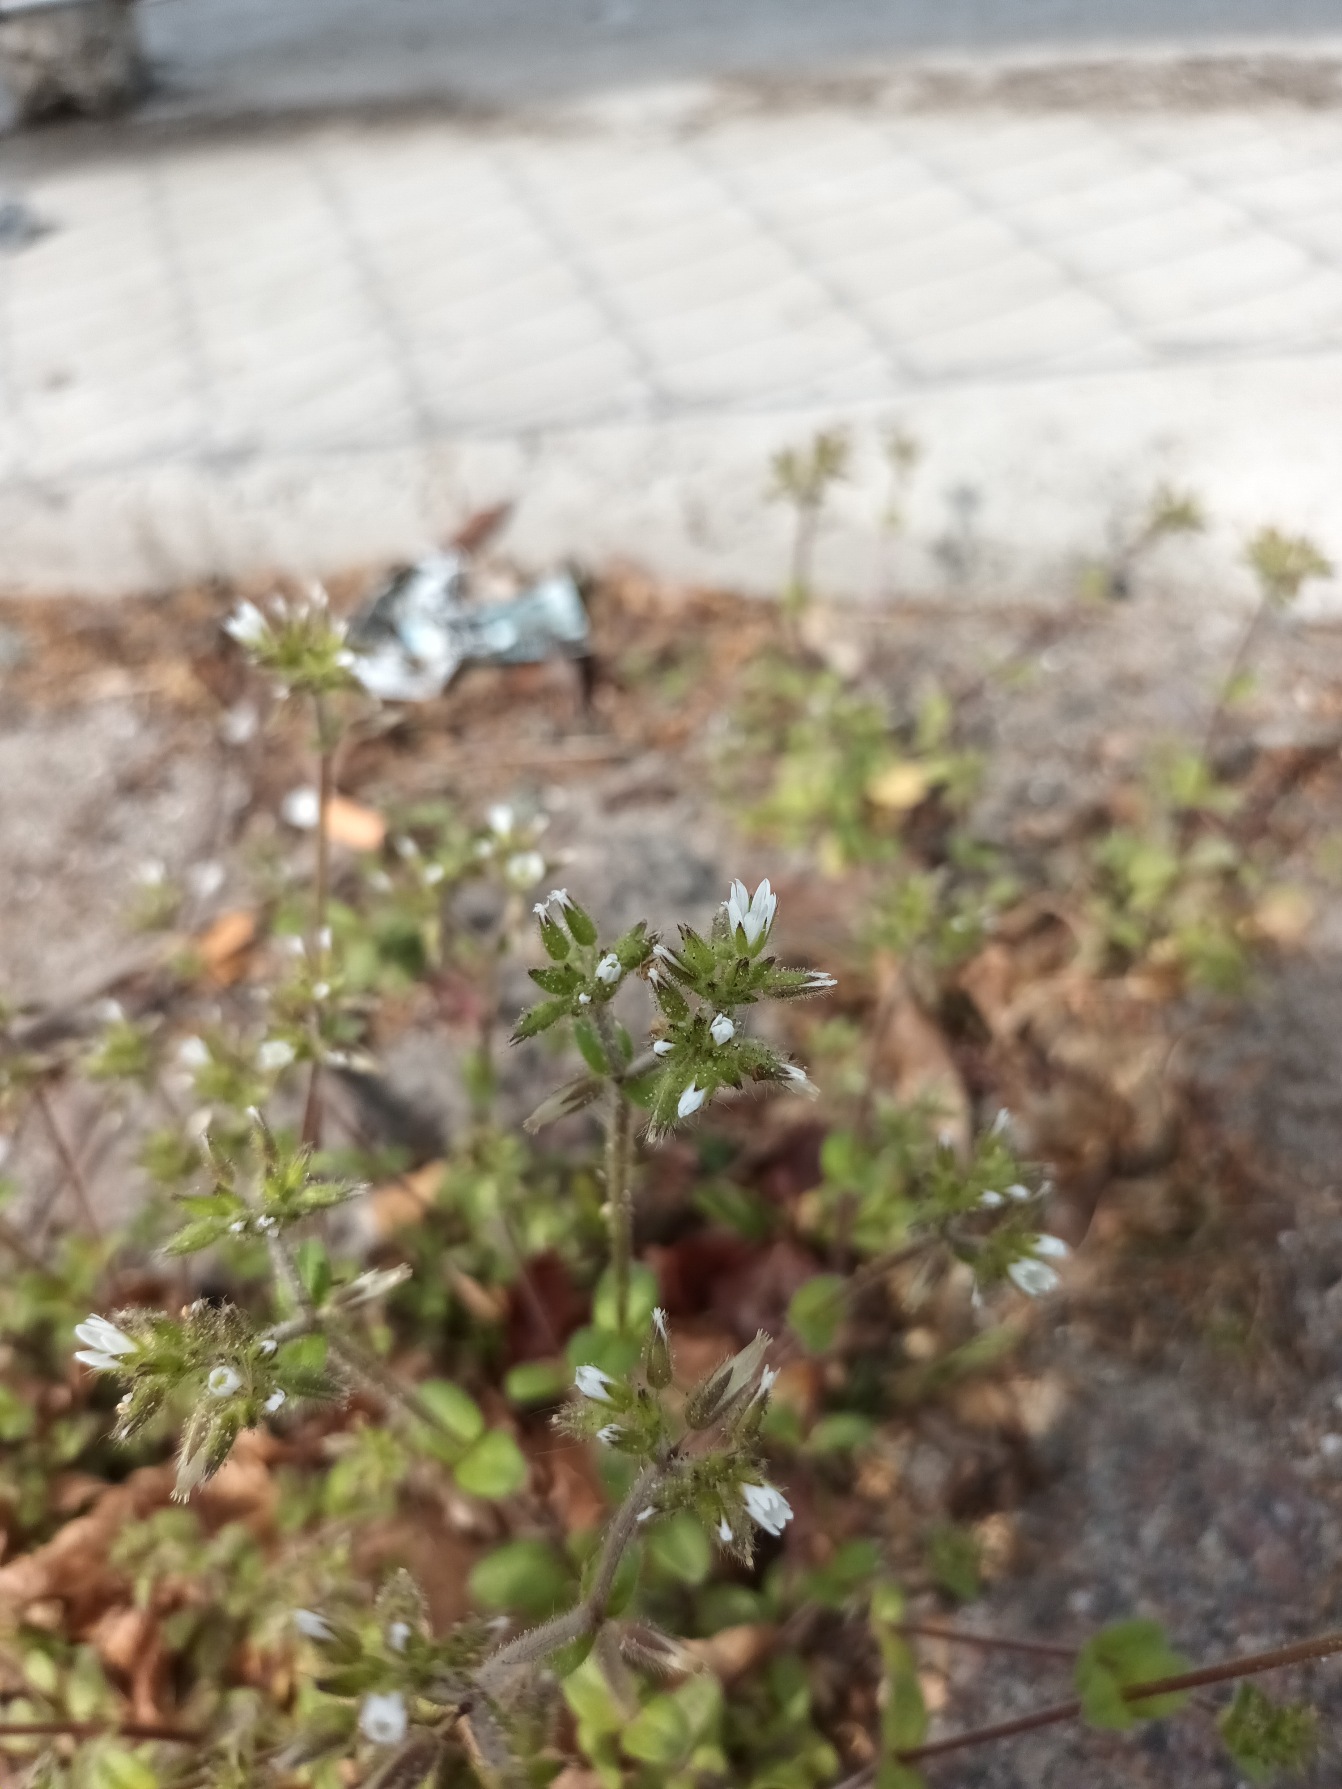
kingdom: Plantae
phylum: Tracheophyta
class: Magnoliopsida
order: Caryophyllales
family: Caryophyllaceae
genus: Cerastium
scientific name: Cerastium glomeratum
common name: Opret hønsetarm
